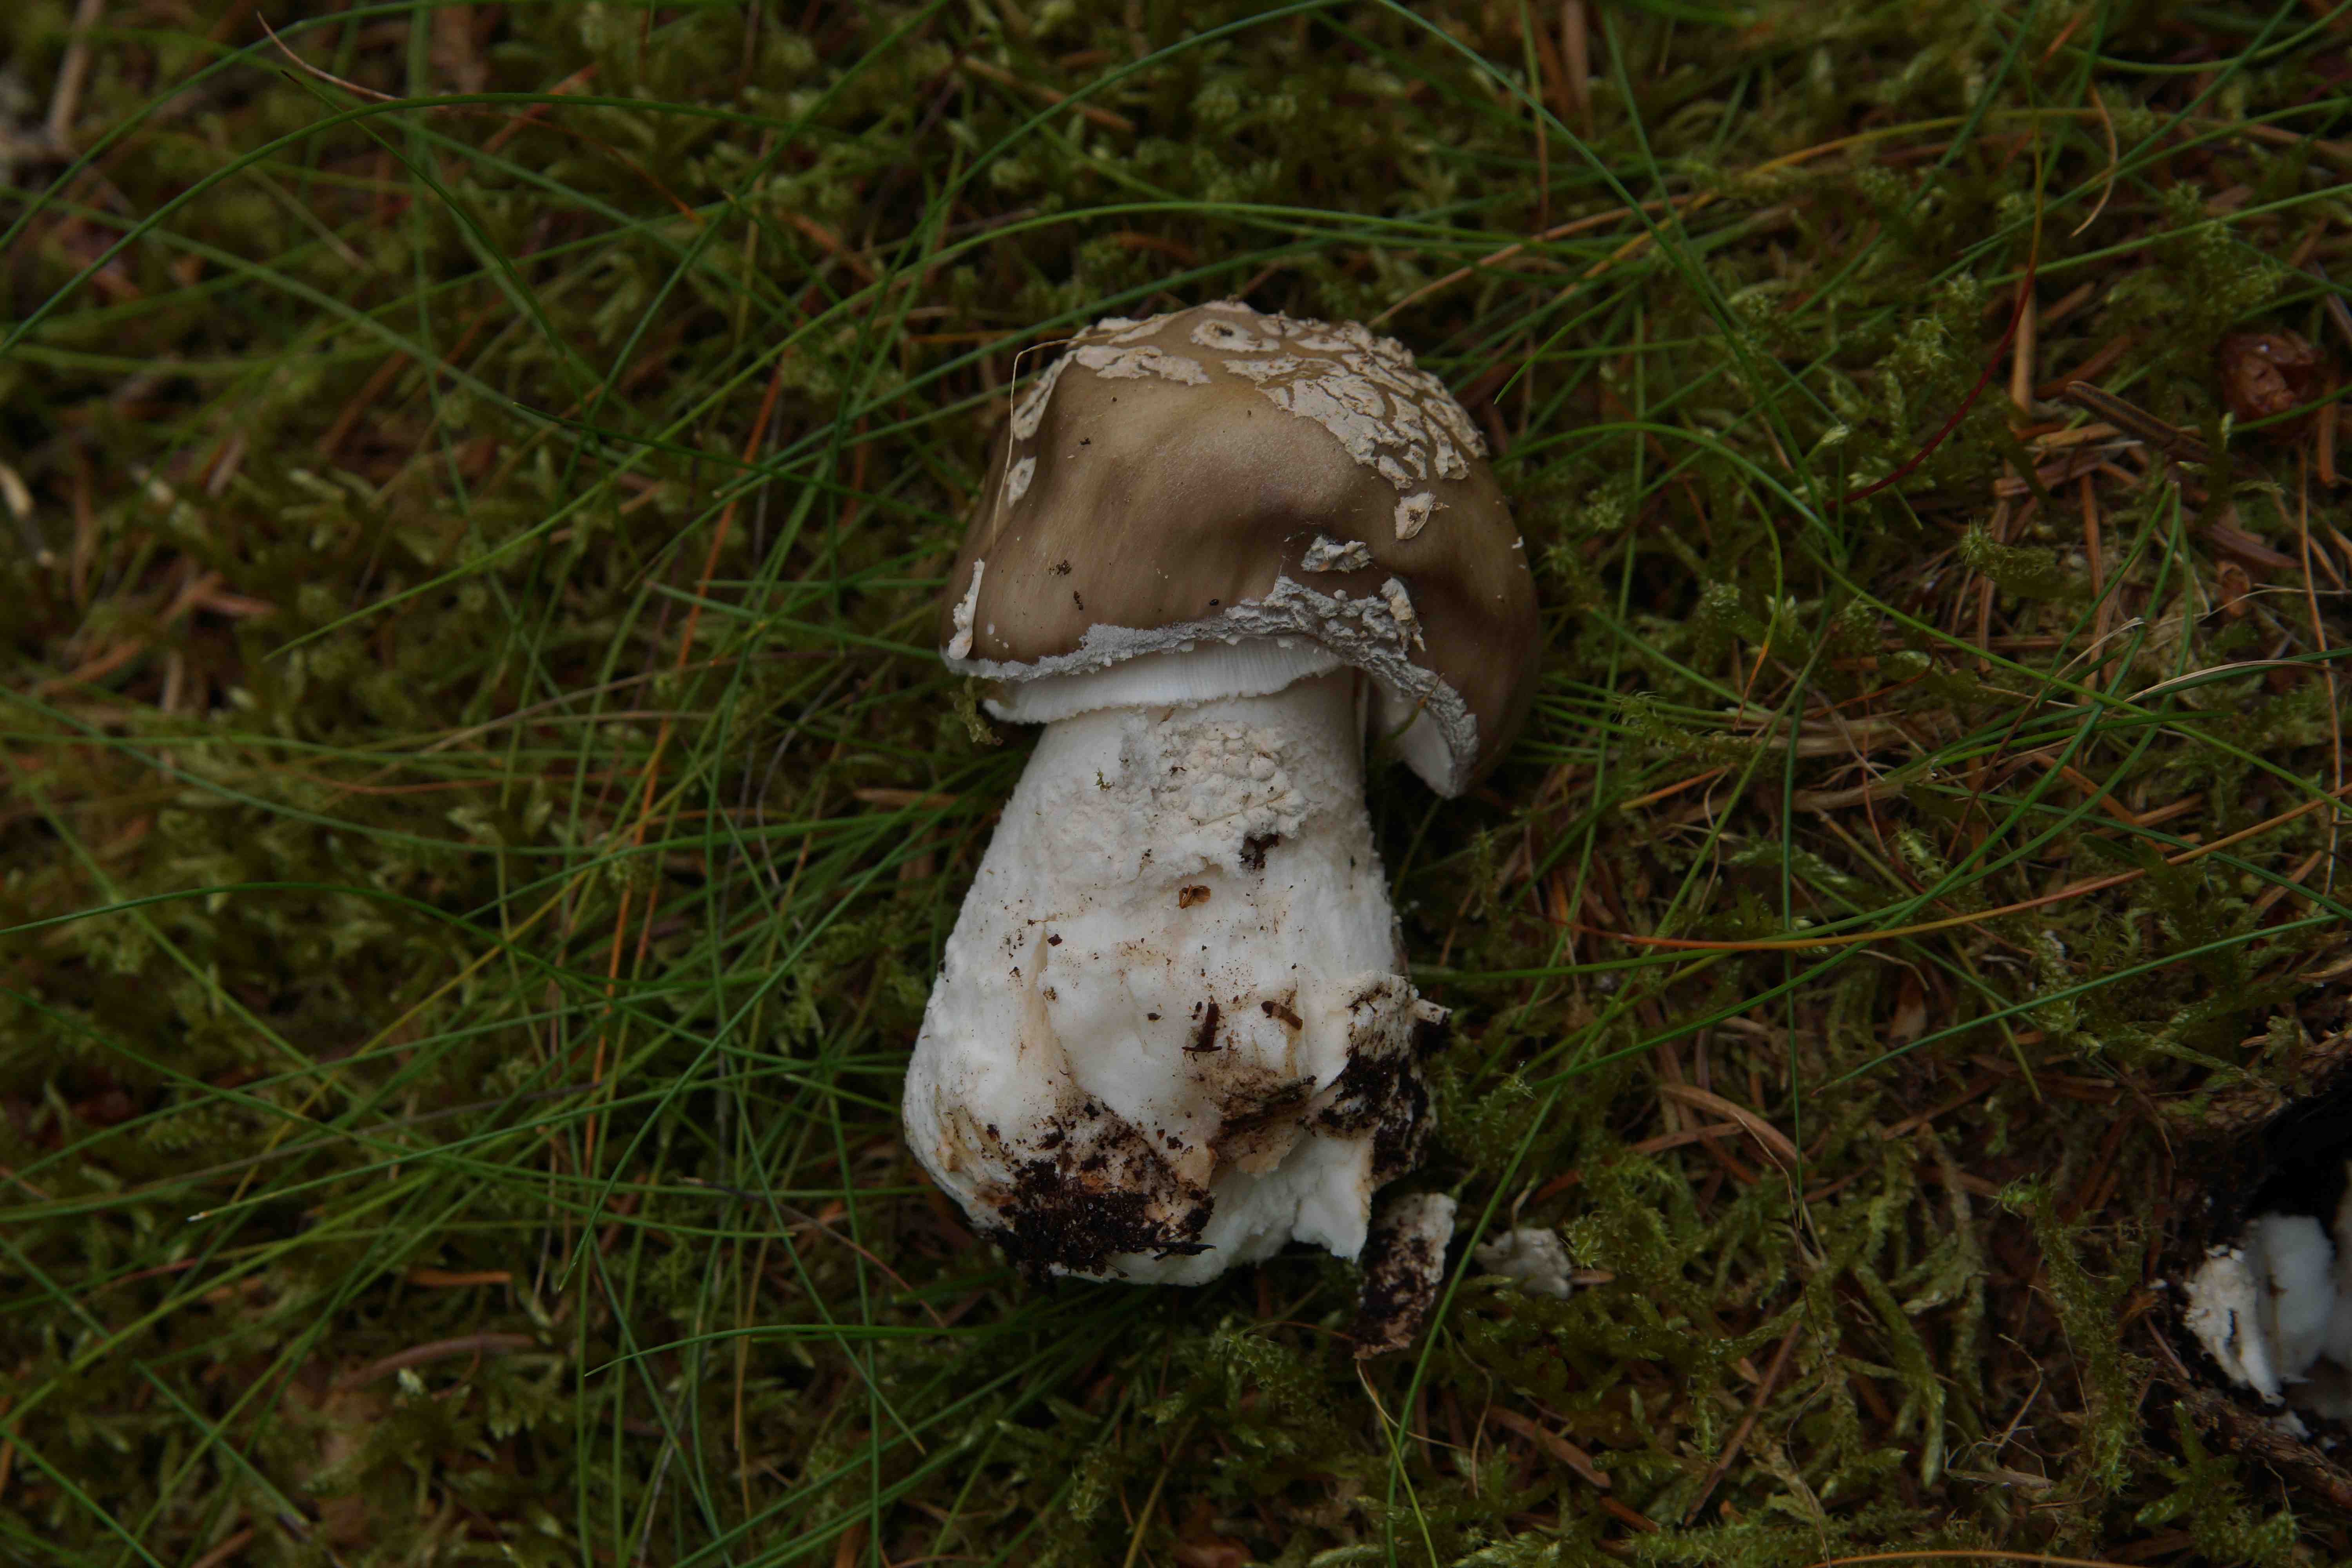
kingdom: Fungi
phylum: Basidiomycota
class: Agaricomycetes
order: Agaricales
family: Amanitaceae
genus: Amanita
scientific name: Amanita
